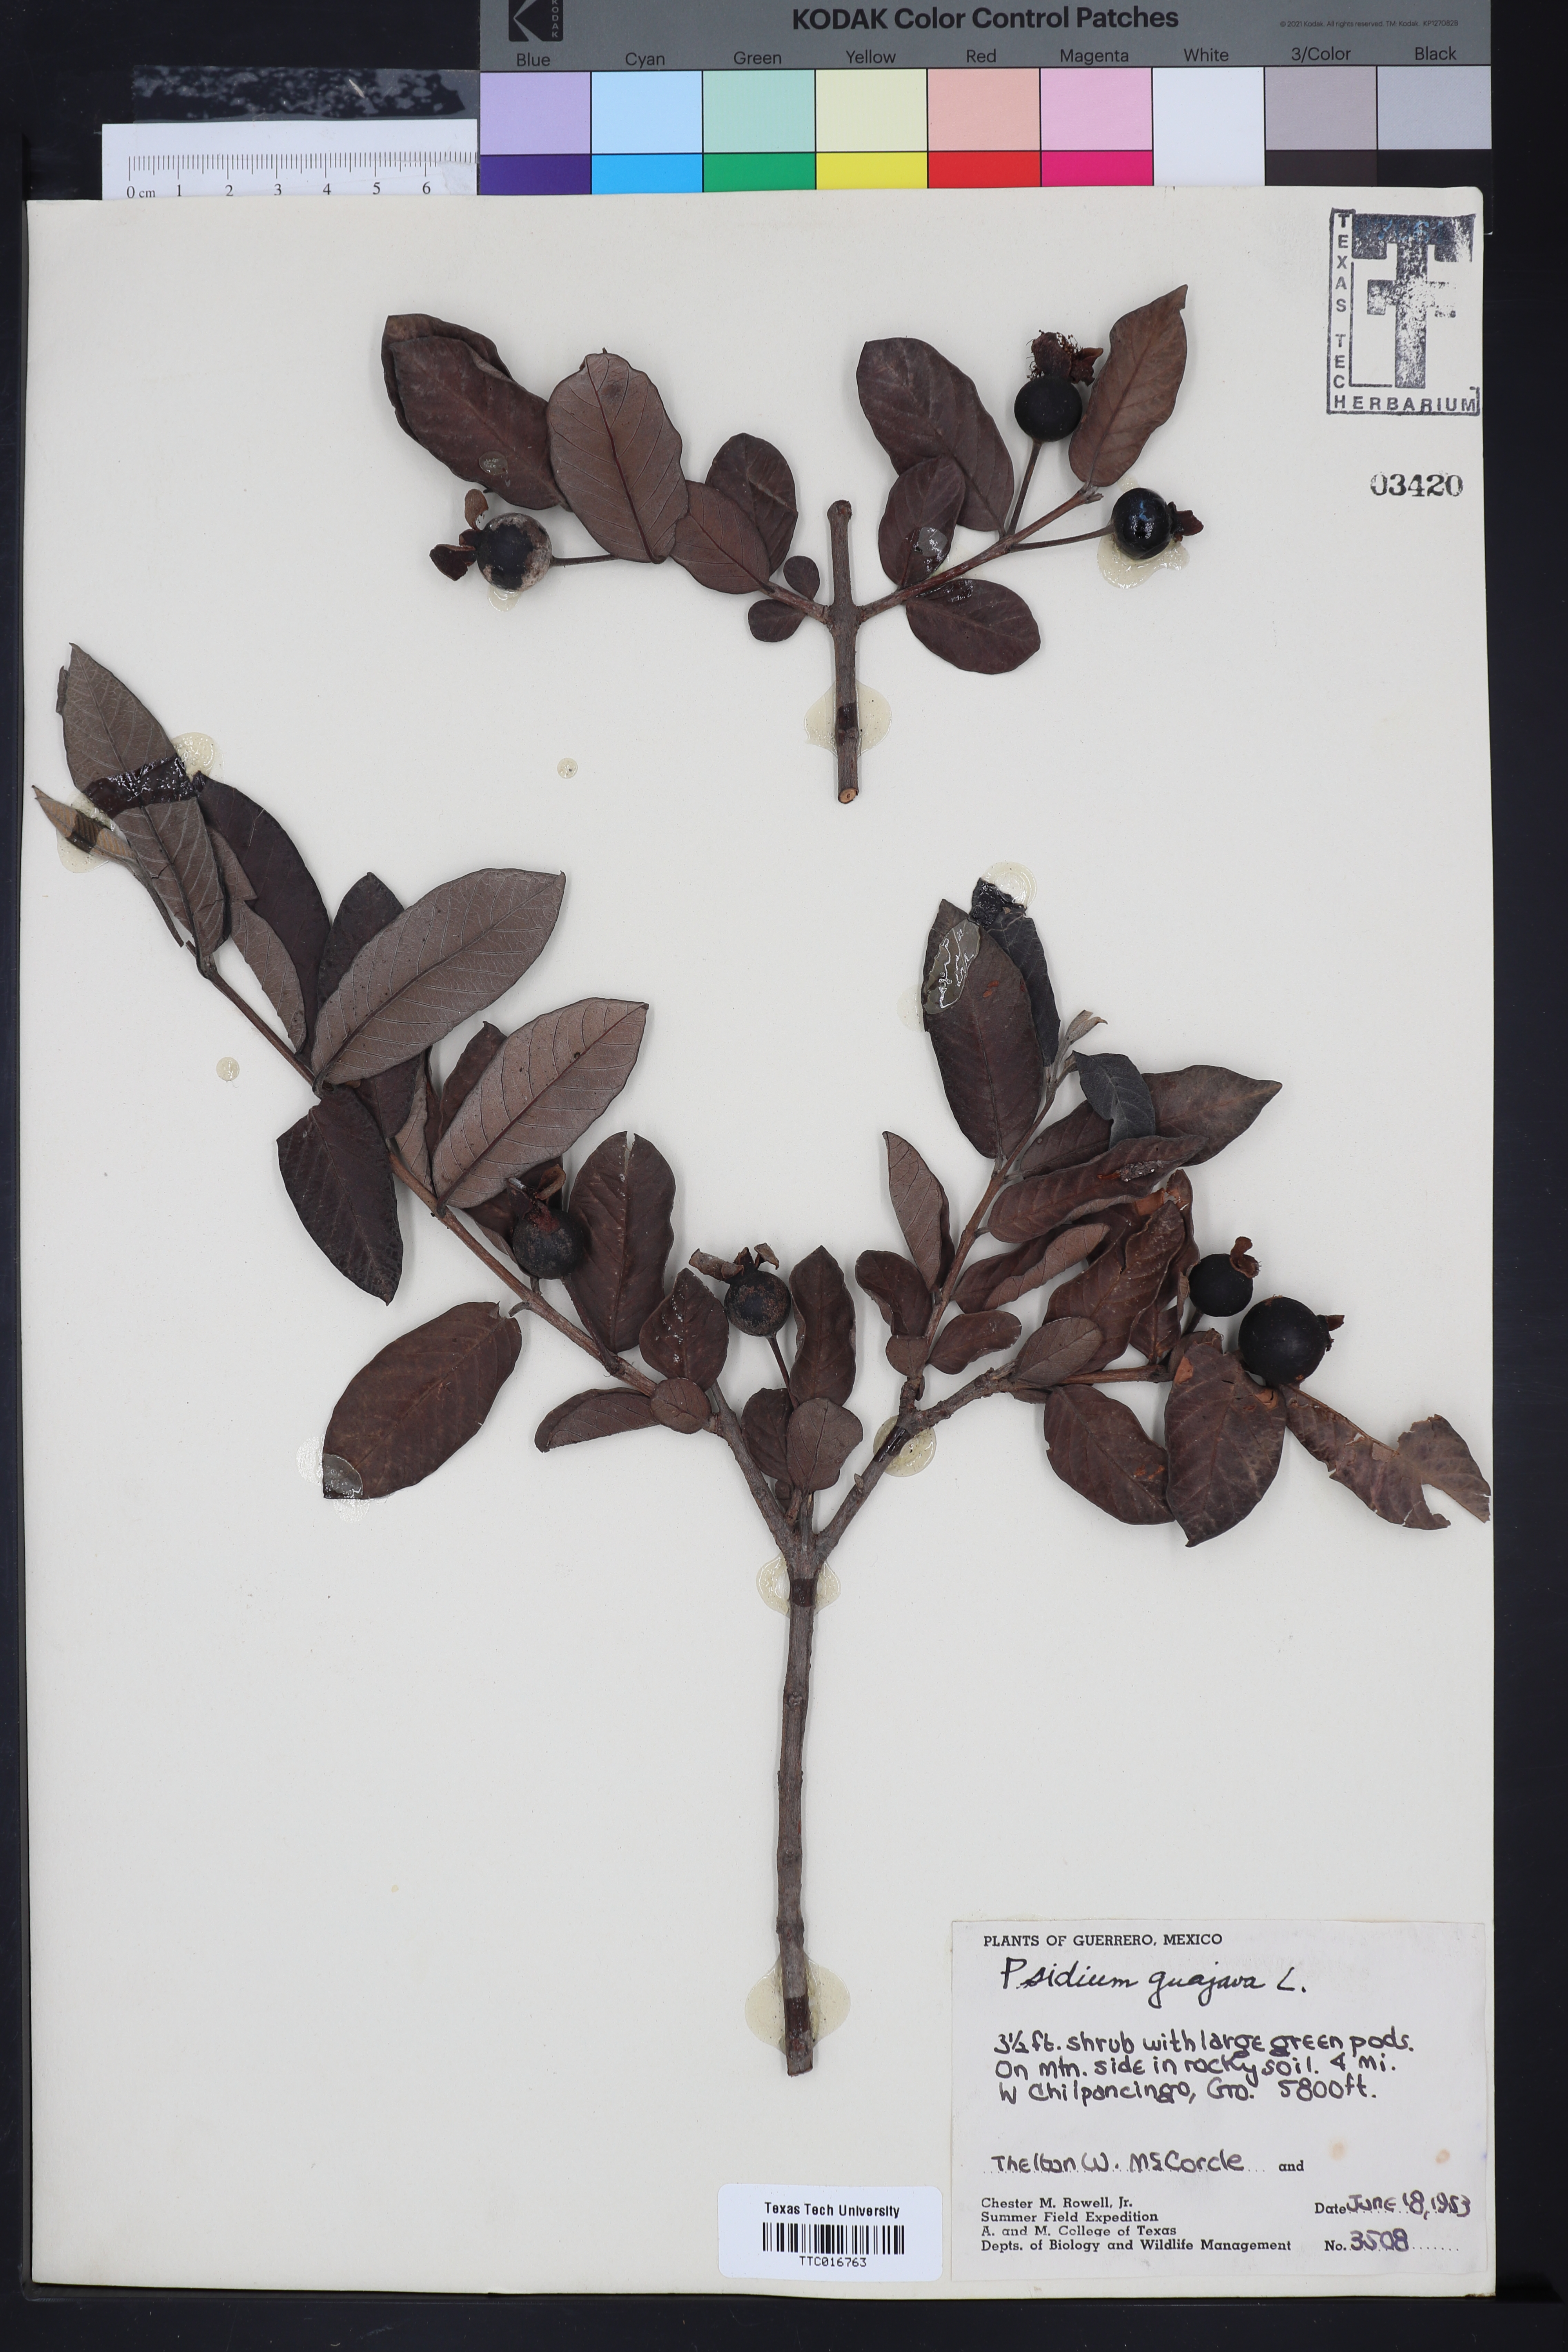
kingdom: Plantae
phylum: Tracheophyta
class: Magnoliopsida
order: Myrtales
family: Myrtaceae
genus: Psidium
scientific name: Psidium guajava
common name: Guava
